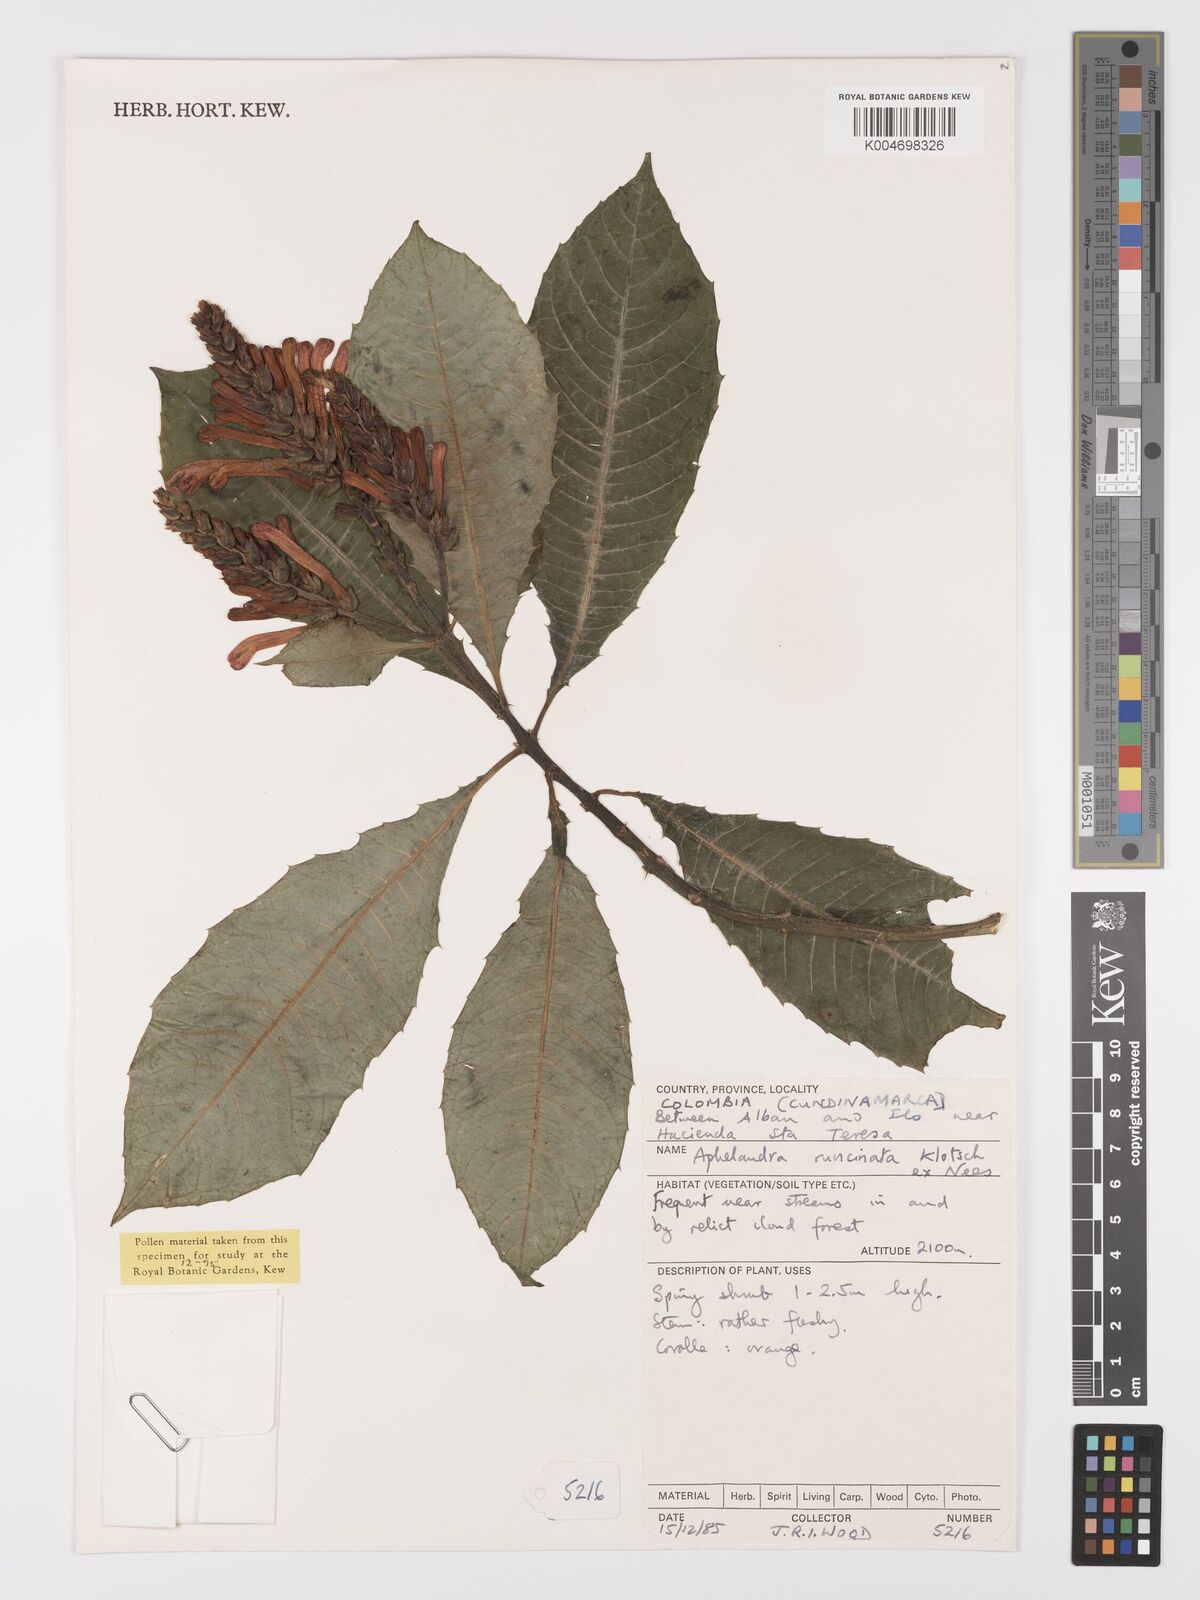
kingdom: Plantae
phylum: Tracheophyta
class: Magnoliopsida
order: Lamiales
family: Acanthaceae
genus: Aphelandra
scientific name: Aphelandra runcinata
